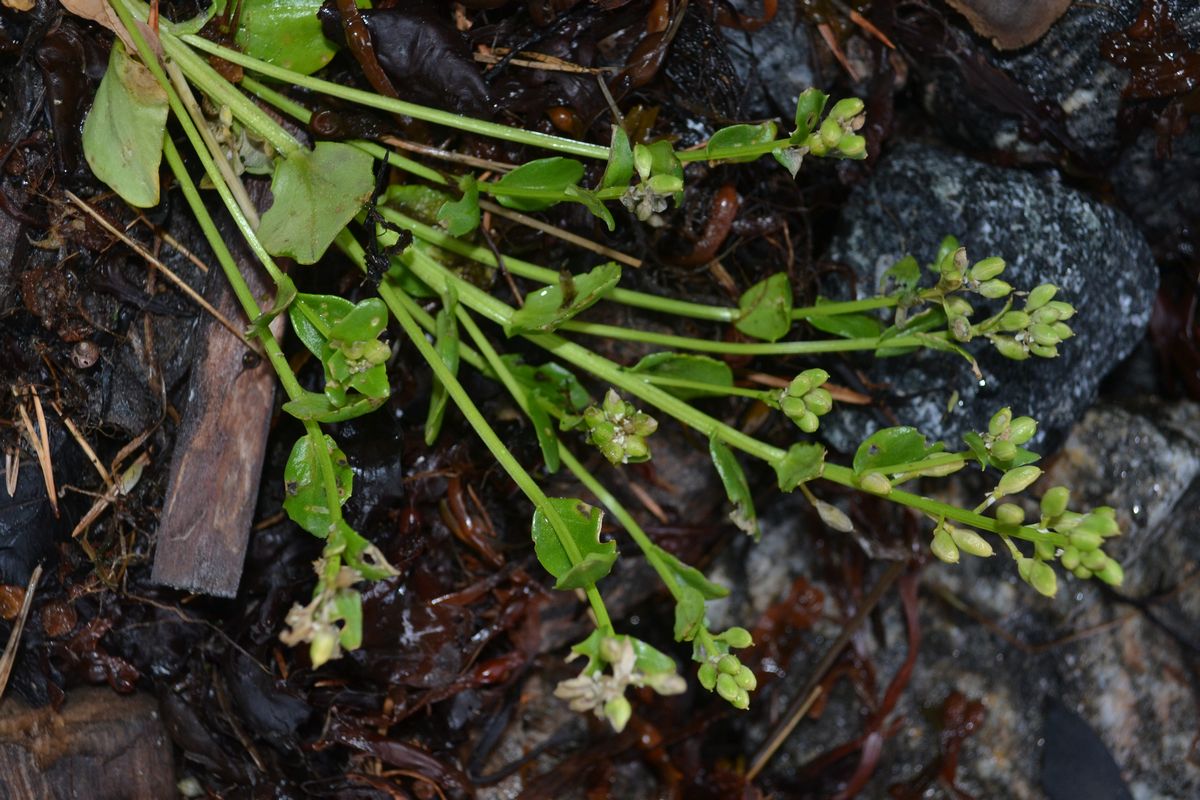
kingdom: Plantae
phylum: Tracheophyta
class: Magnoliopsida
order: Brassicales
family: Brassicaceae
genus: Cochlearia
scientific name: Cochlearia officinalis
